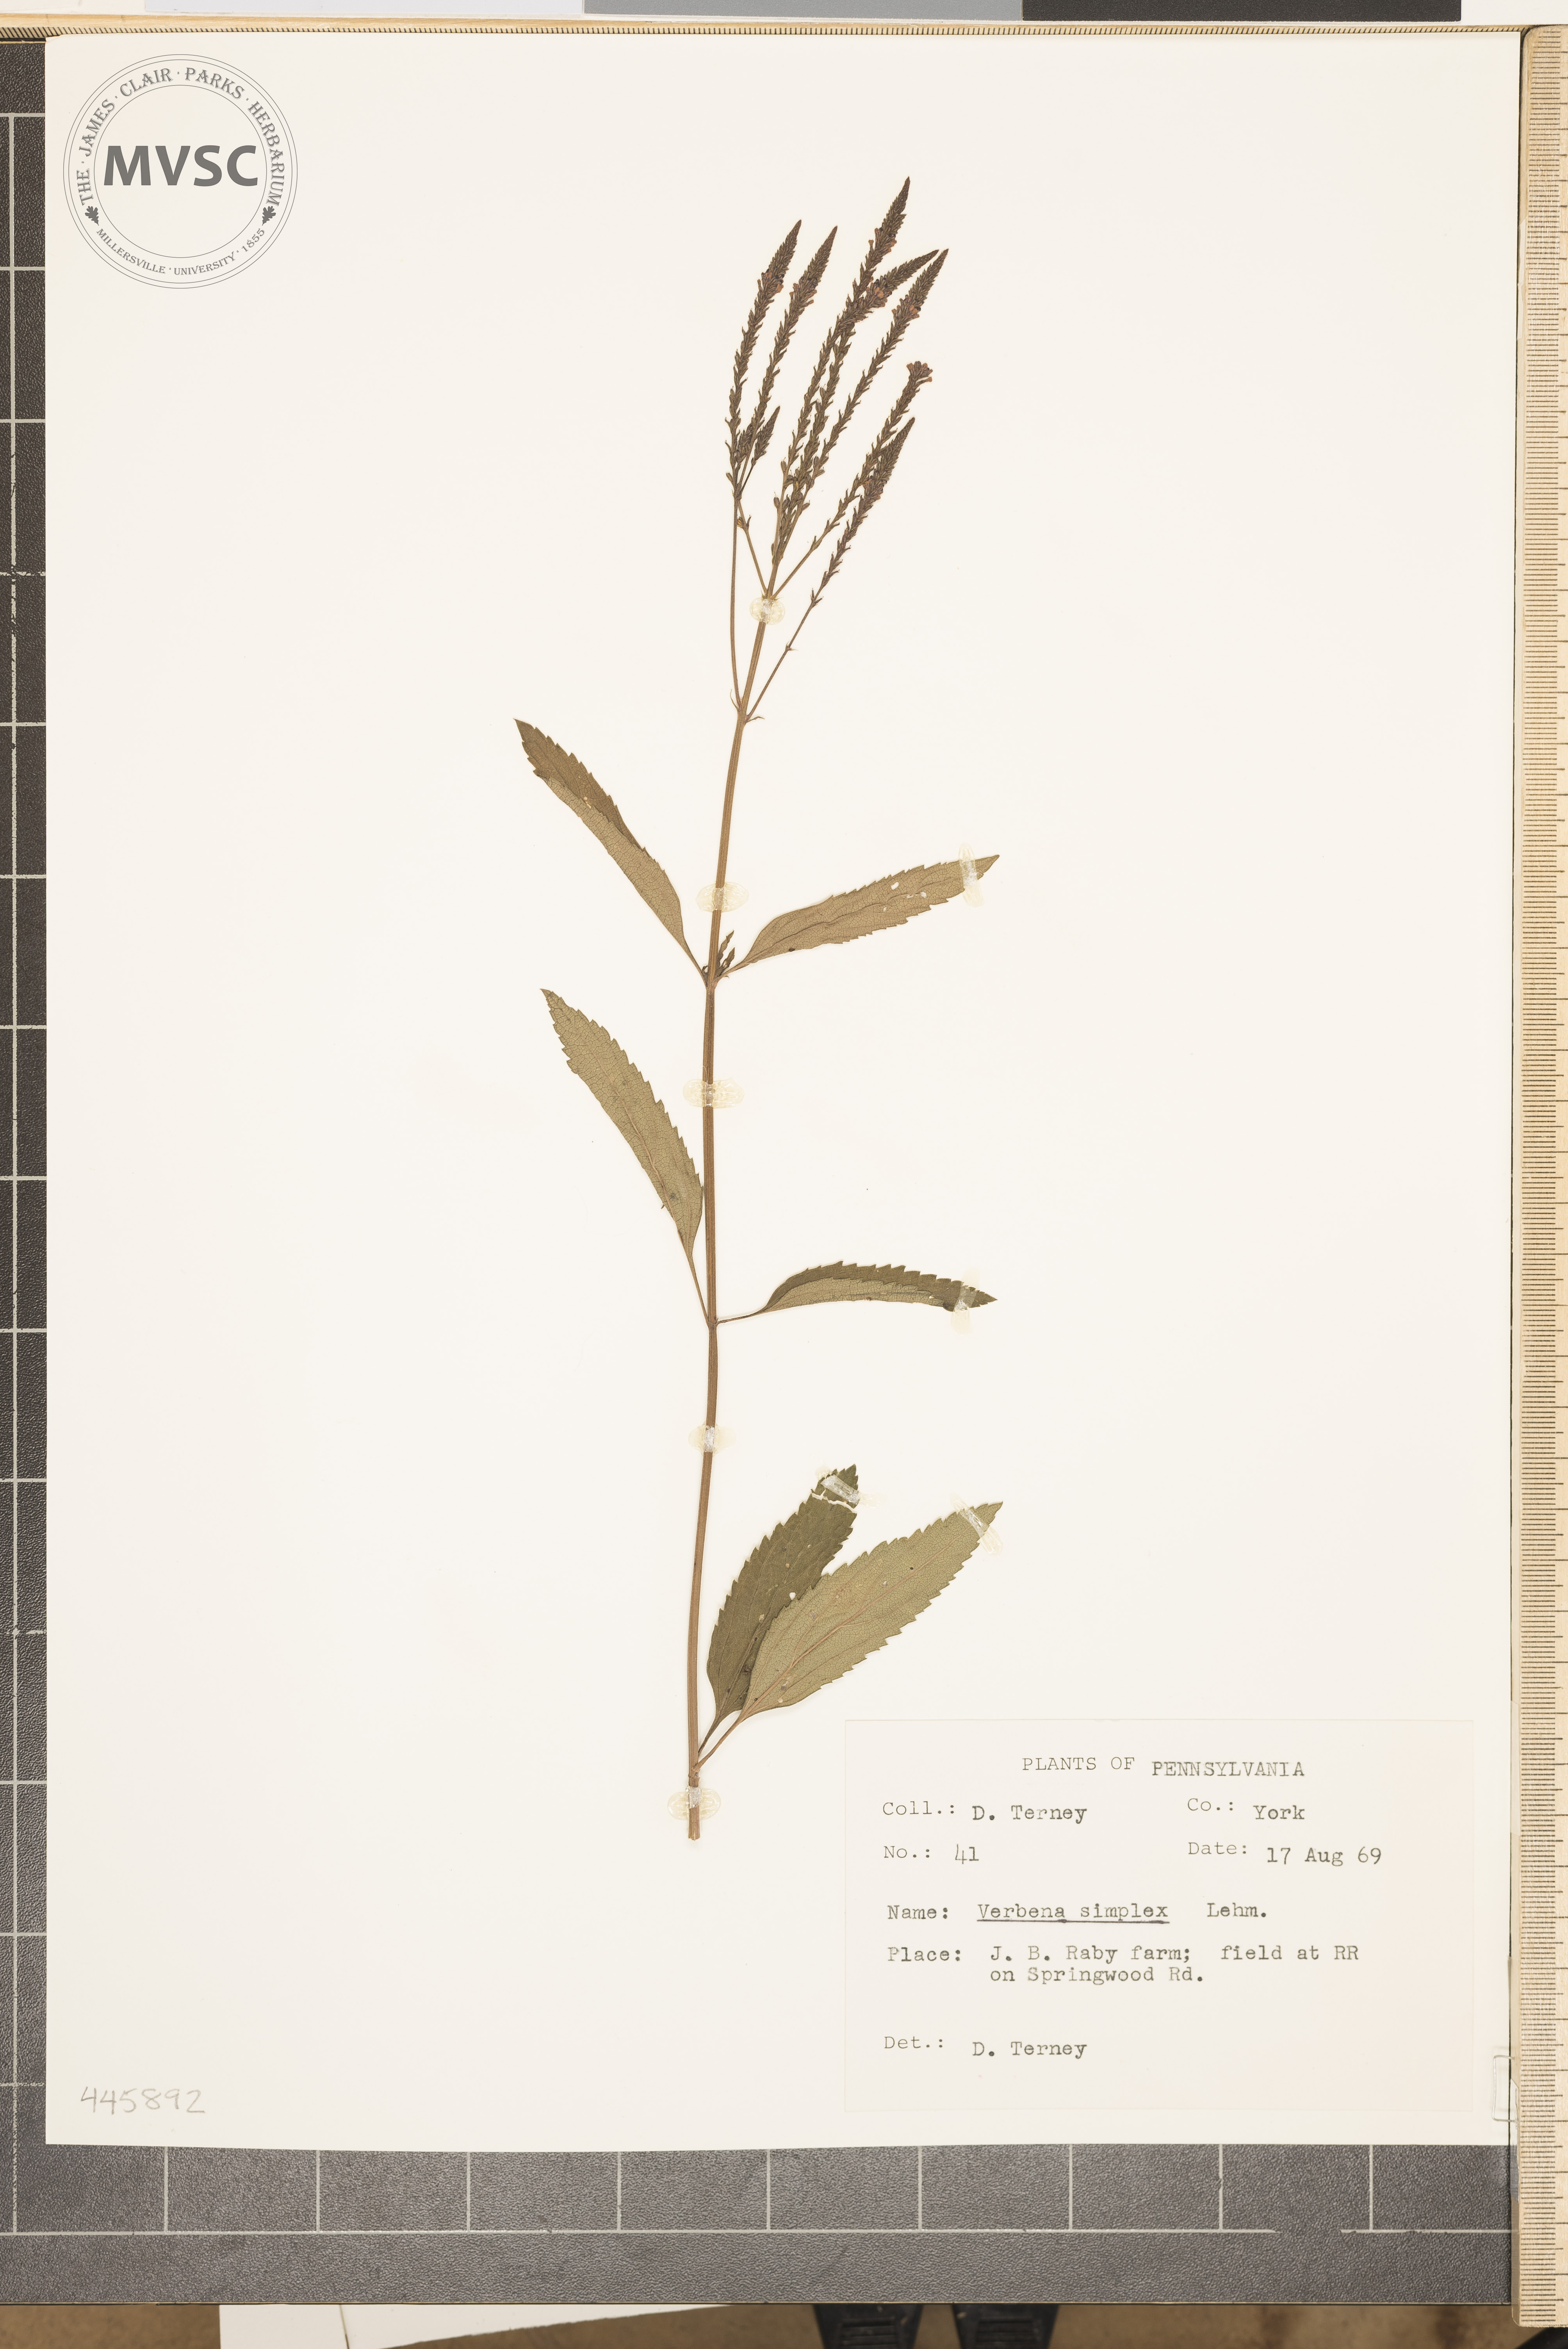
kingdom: Plantae
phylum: Tracheophyta
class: Magnoliopsida
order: Lamiales
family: Verbenaceae
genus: Verbena
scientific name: Verbena hastata
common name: American blue vervain
